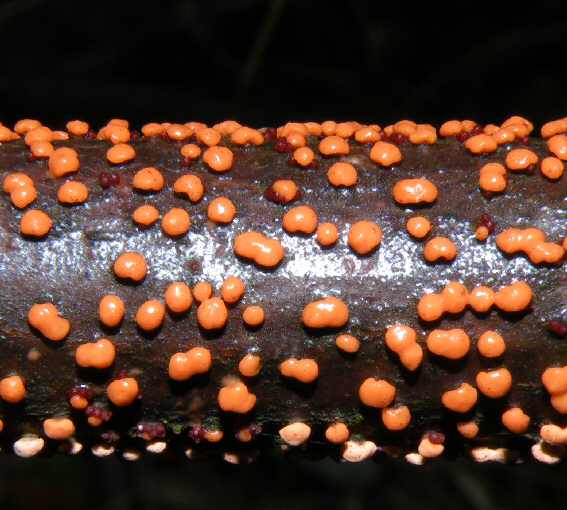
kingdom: Fungi
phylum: Ascomycota
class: Sordariomycetes
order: Hypocreales
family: Nectriaceae
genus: Nectria
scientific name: Nectria cinnabarina
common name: almindelig cinnobersvamp
